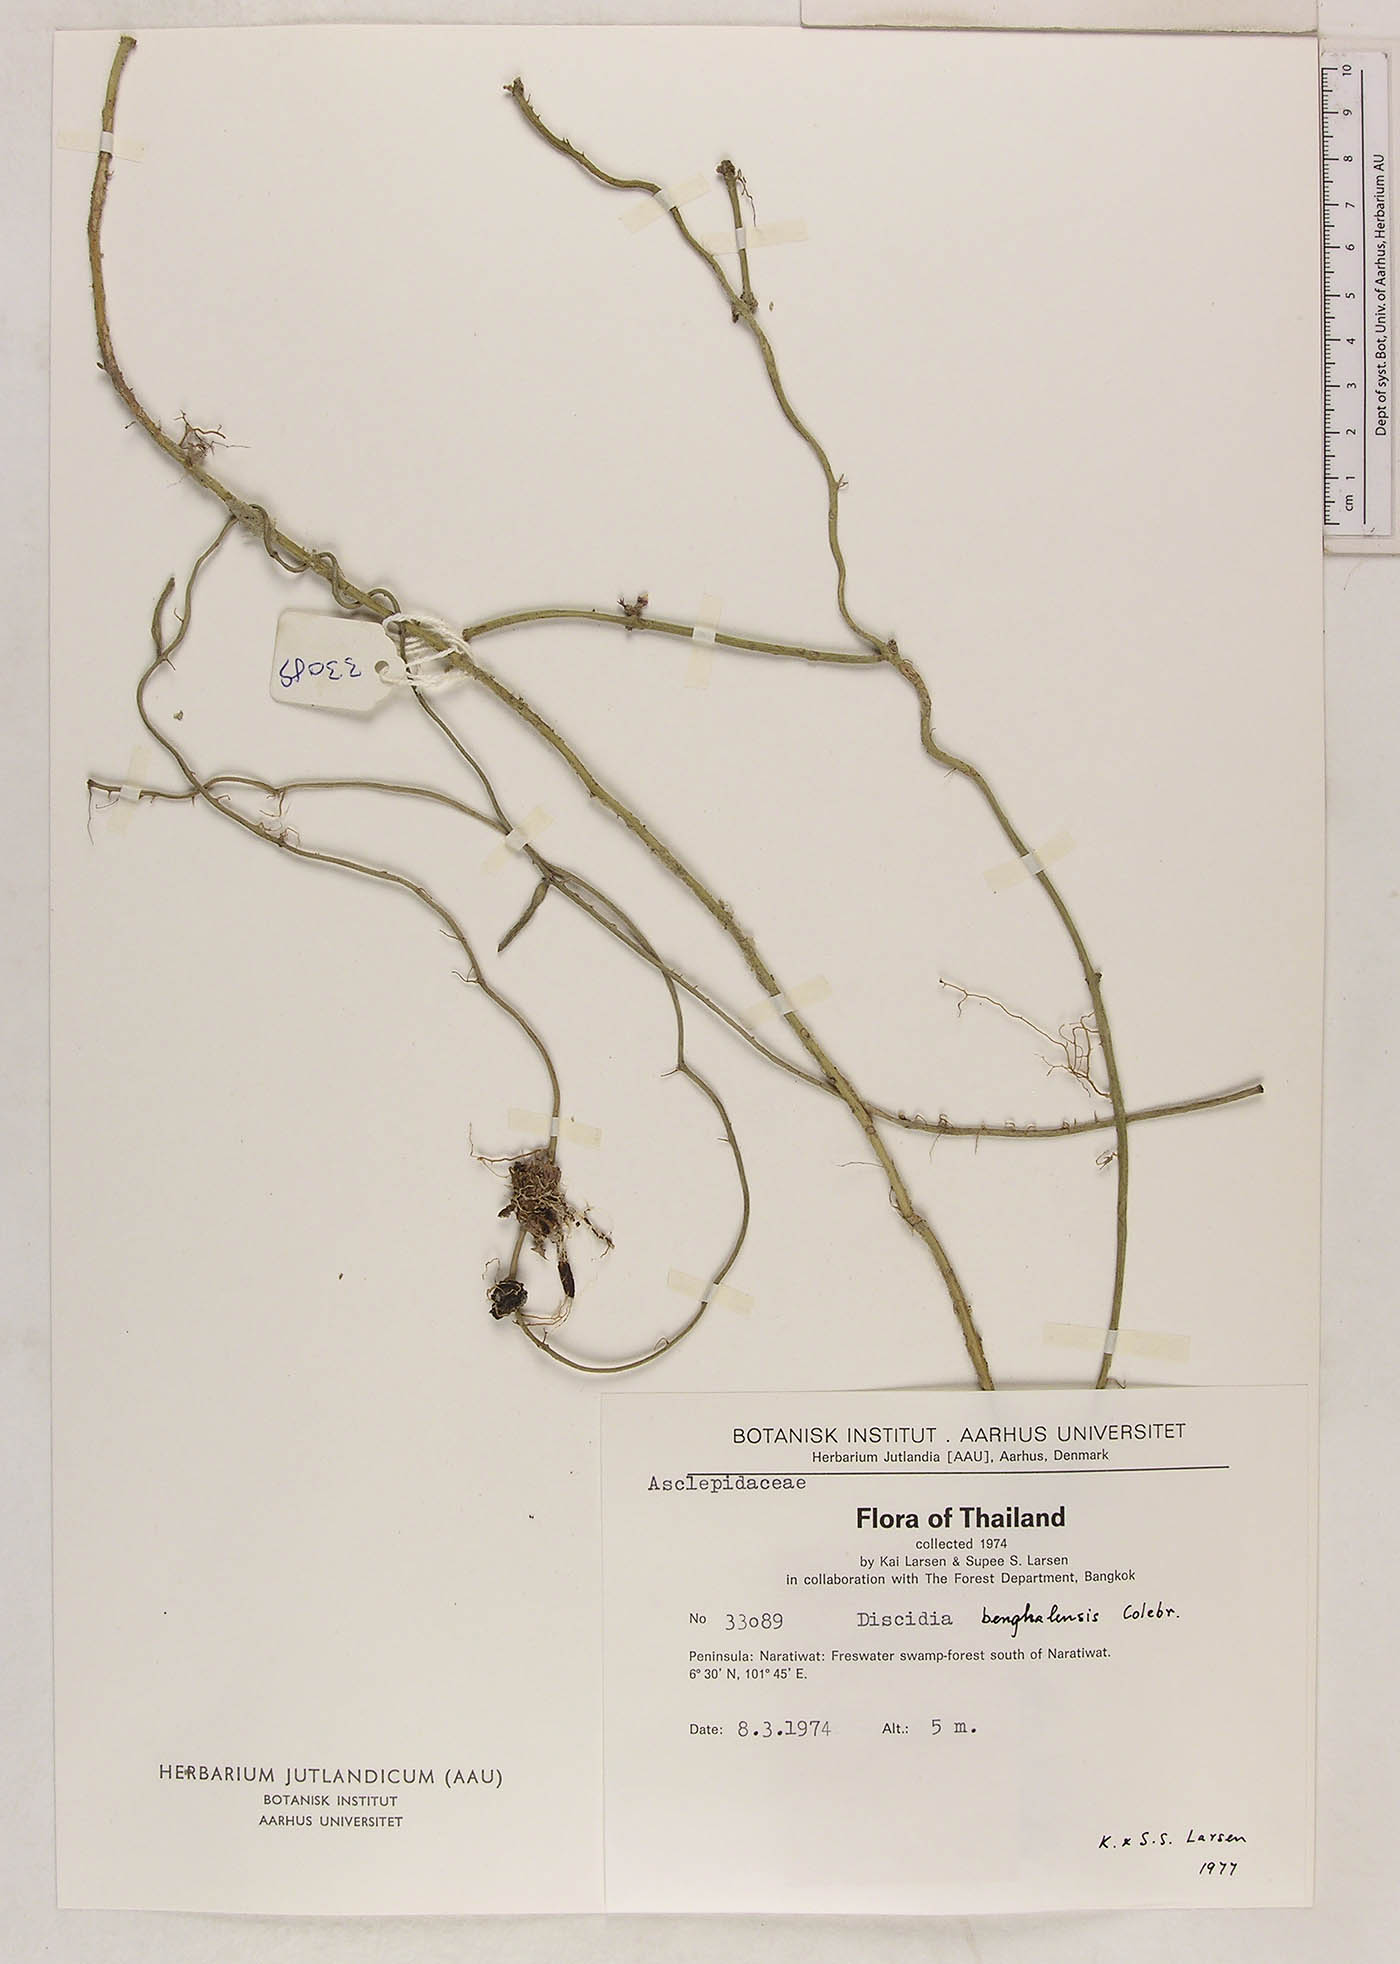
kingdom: Plantae
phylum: Tracheophyta
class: Magnoliopsida
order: Gentianales
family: Apocynaceae
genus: Dischidia
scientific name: Dischidia bengalensis
